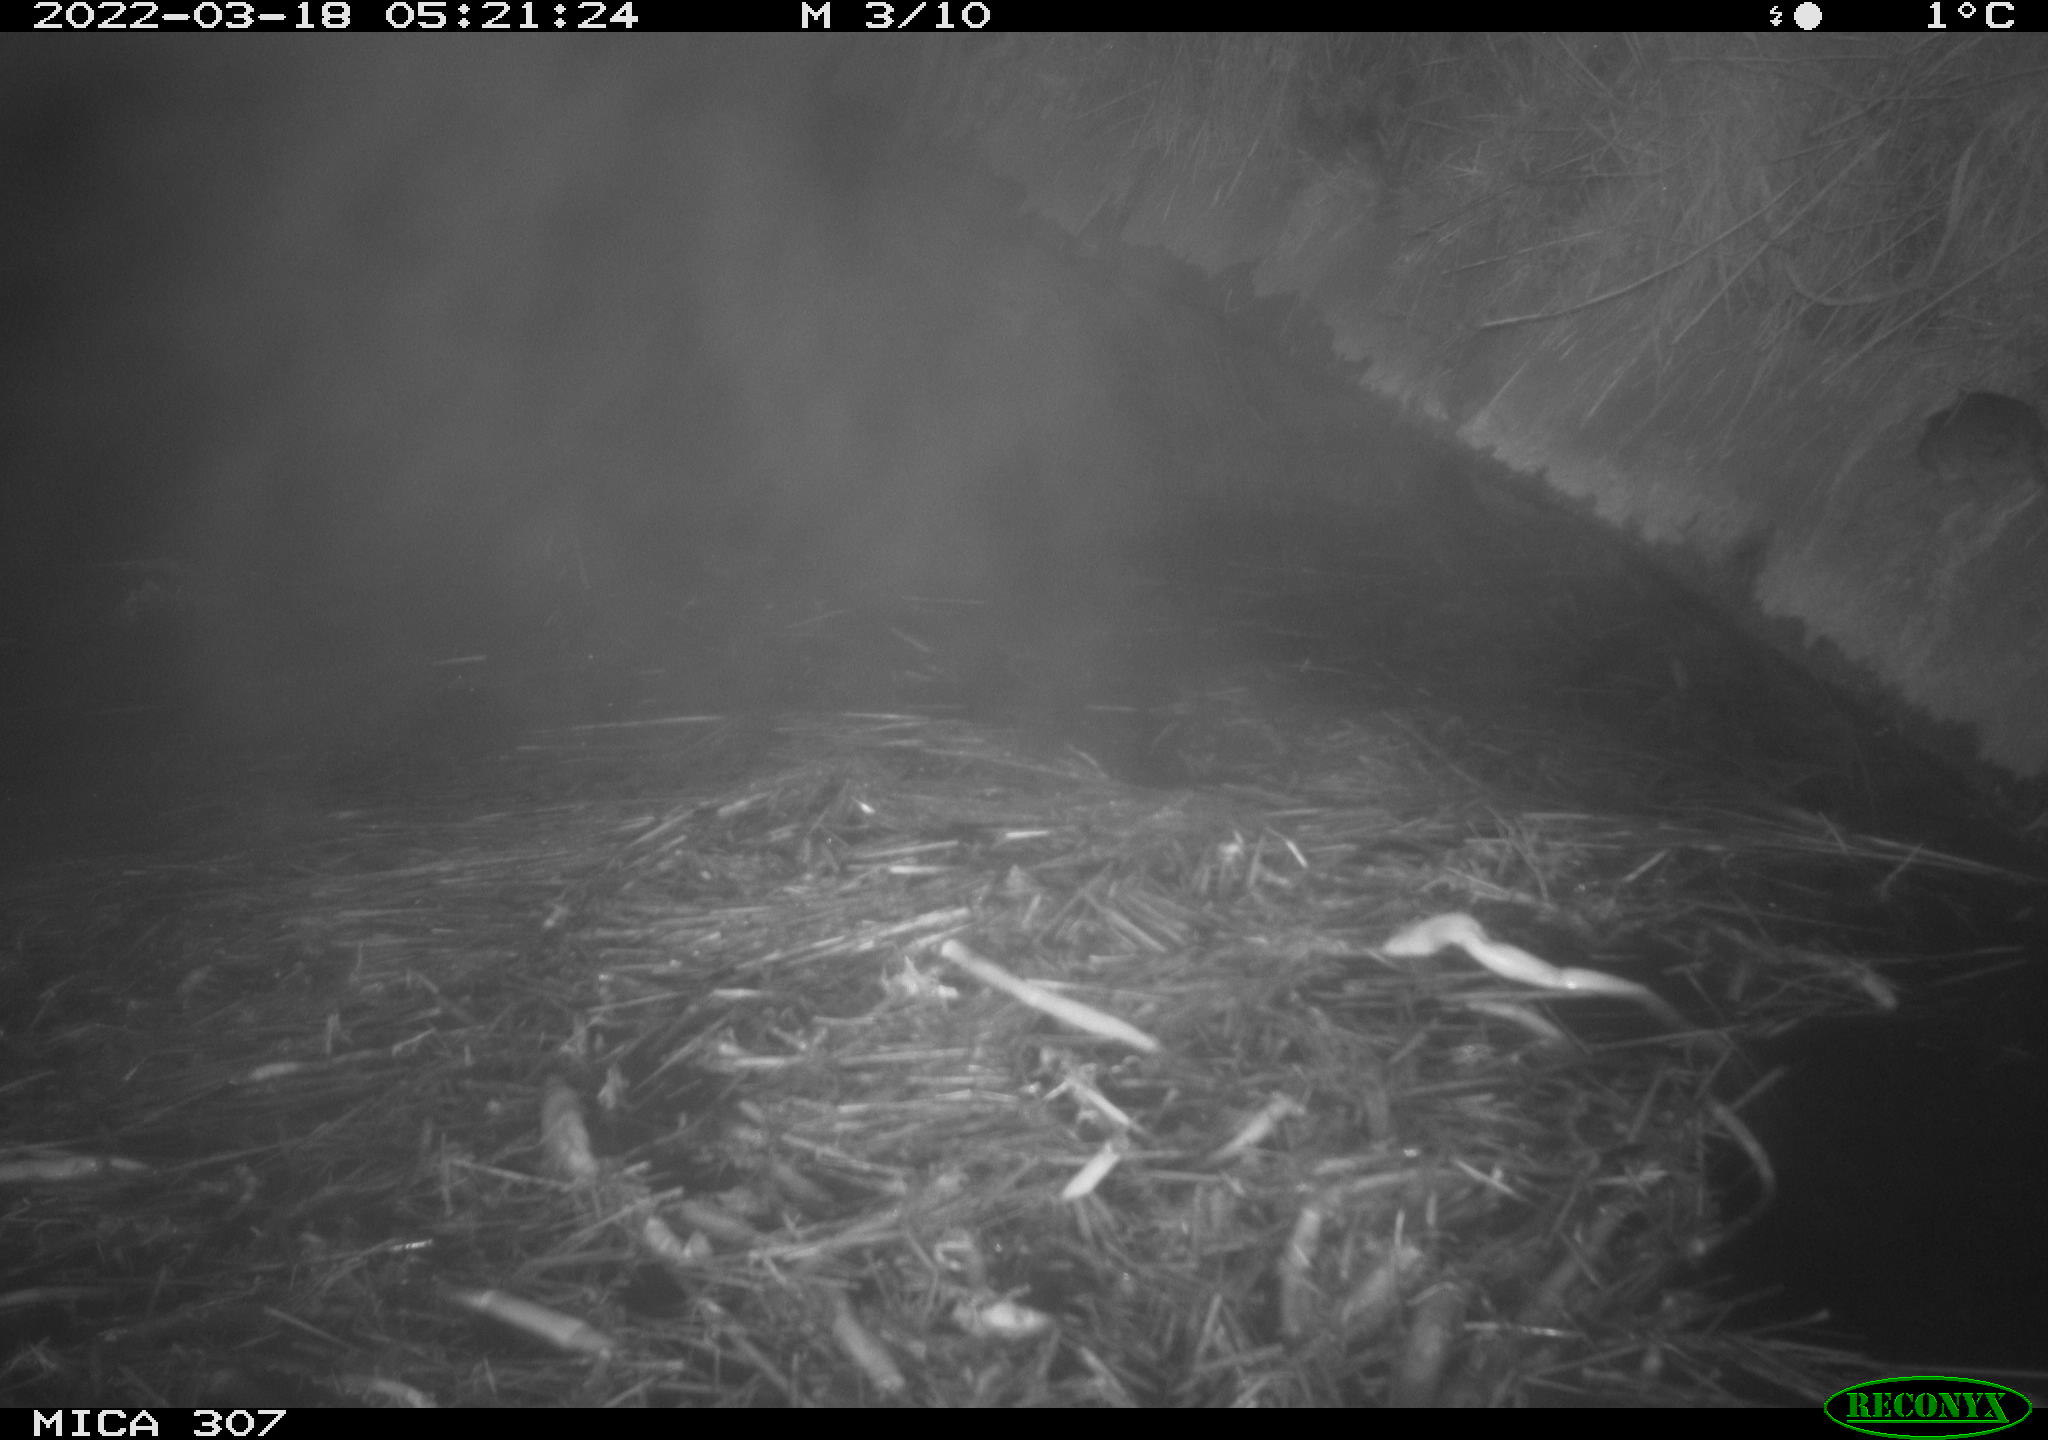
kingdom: Animalia
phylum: Chordata
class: Mammalia
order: Rodentia
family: Muridae
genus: Rattus
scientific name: Rattus norvegicus
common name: Brown rat
